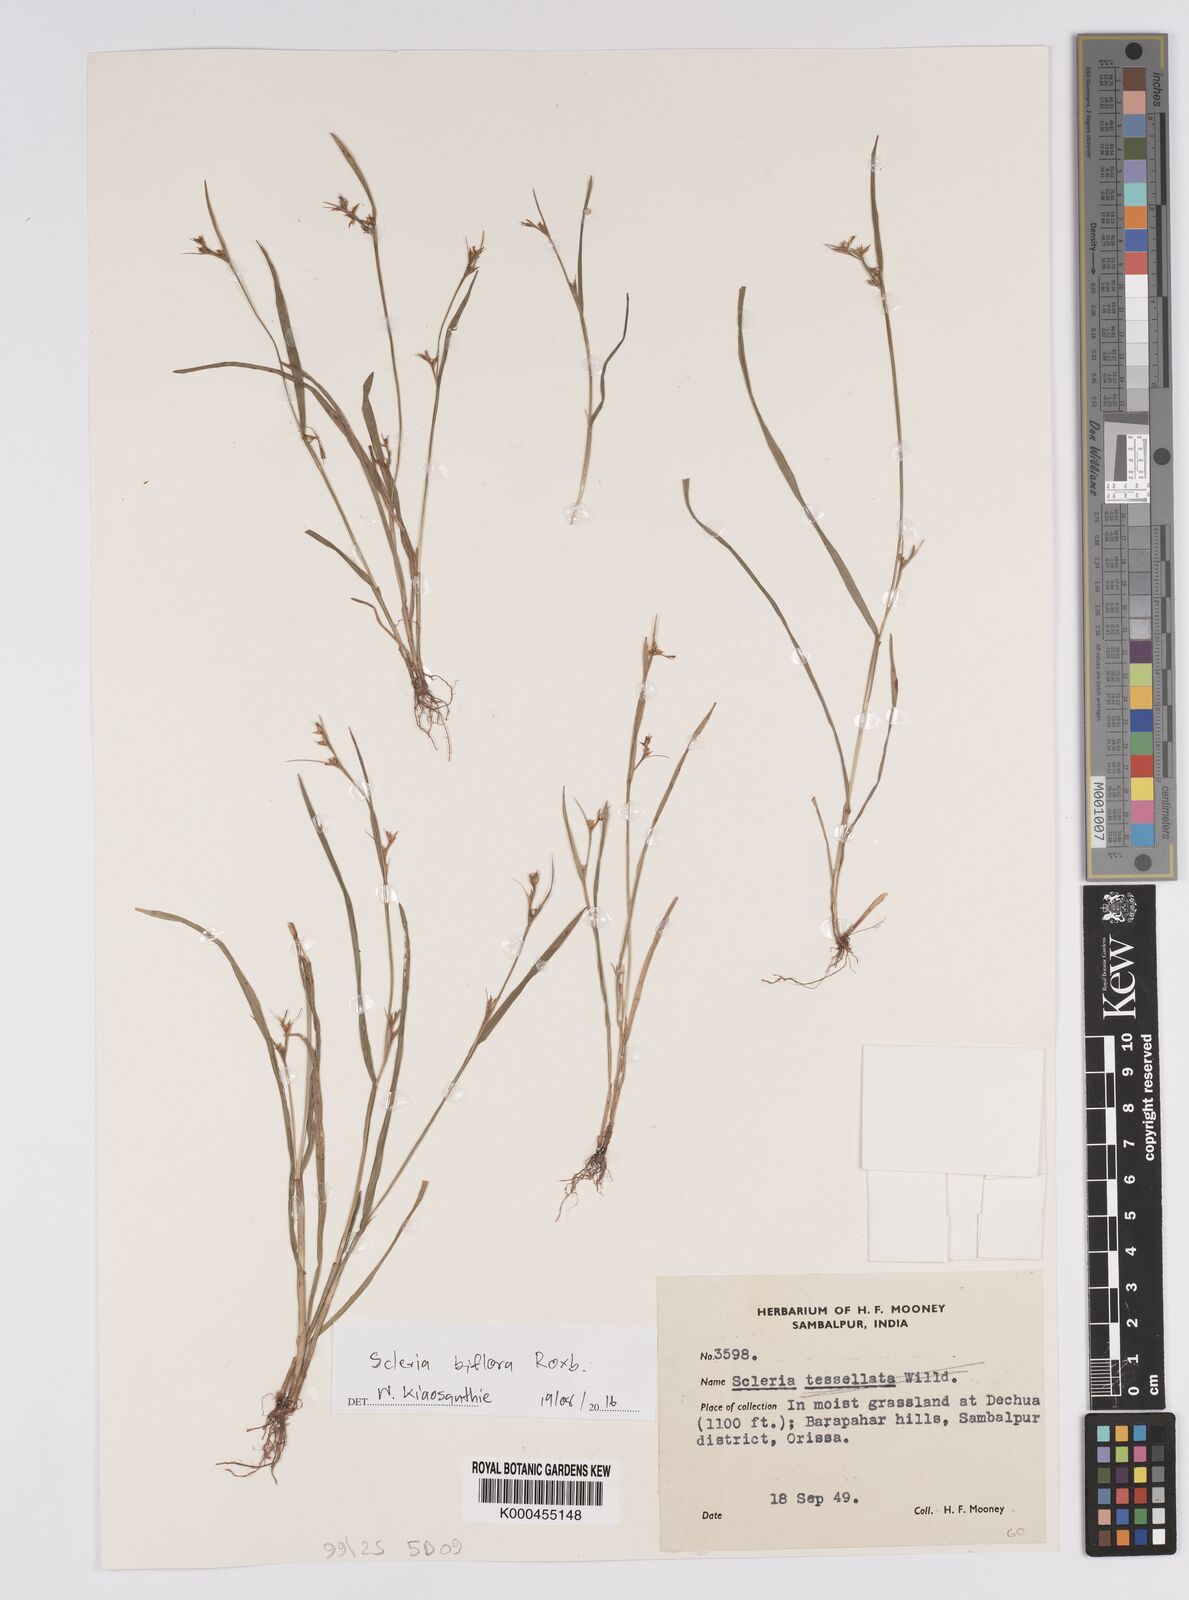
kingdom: Plantae
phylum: Tracheophyta
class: Liliopsida
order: Poales
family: Cyperaceae
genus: Scleria
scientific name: Scleria biflora
